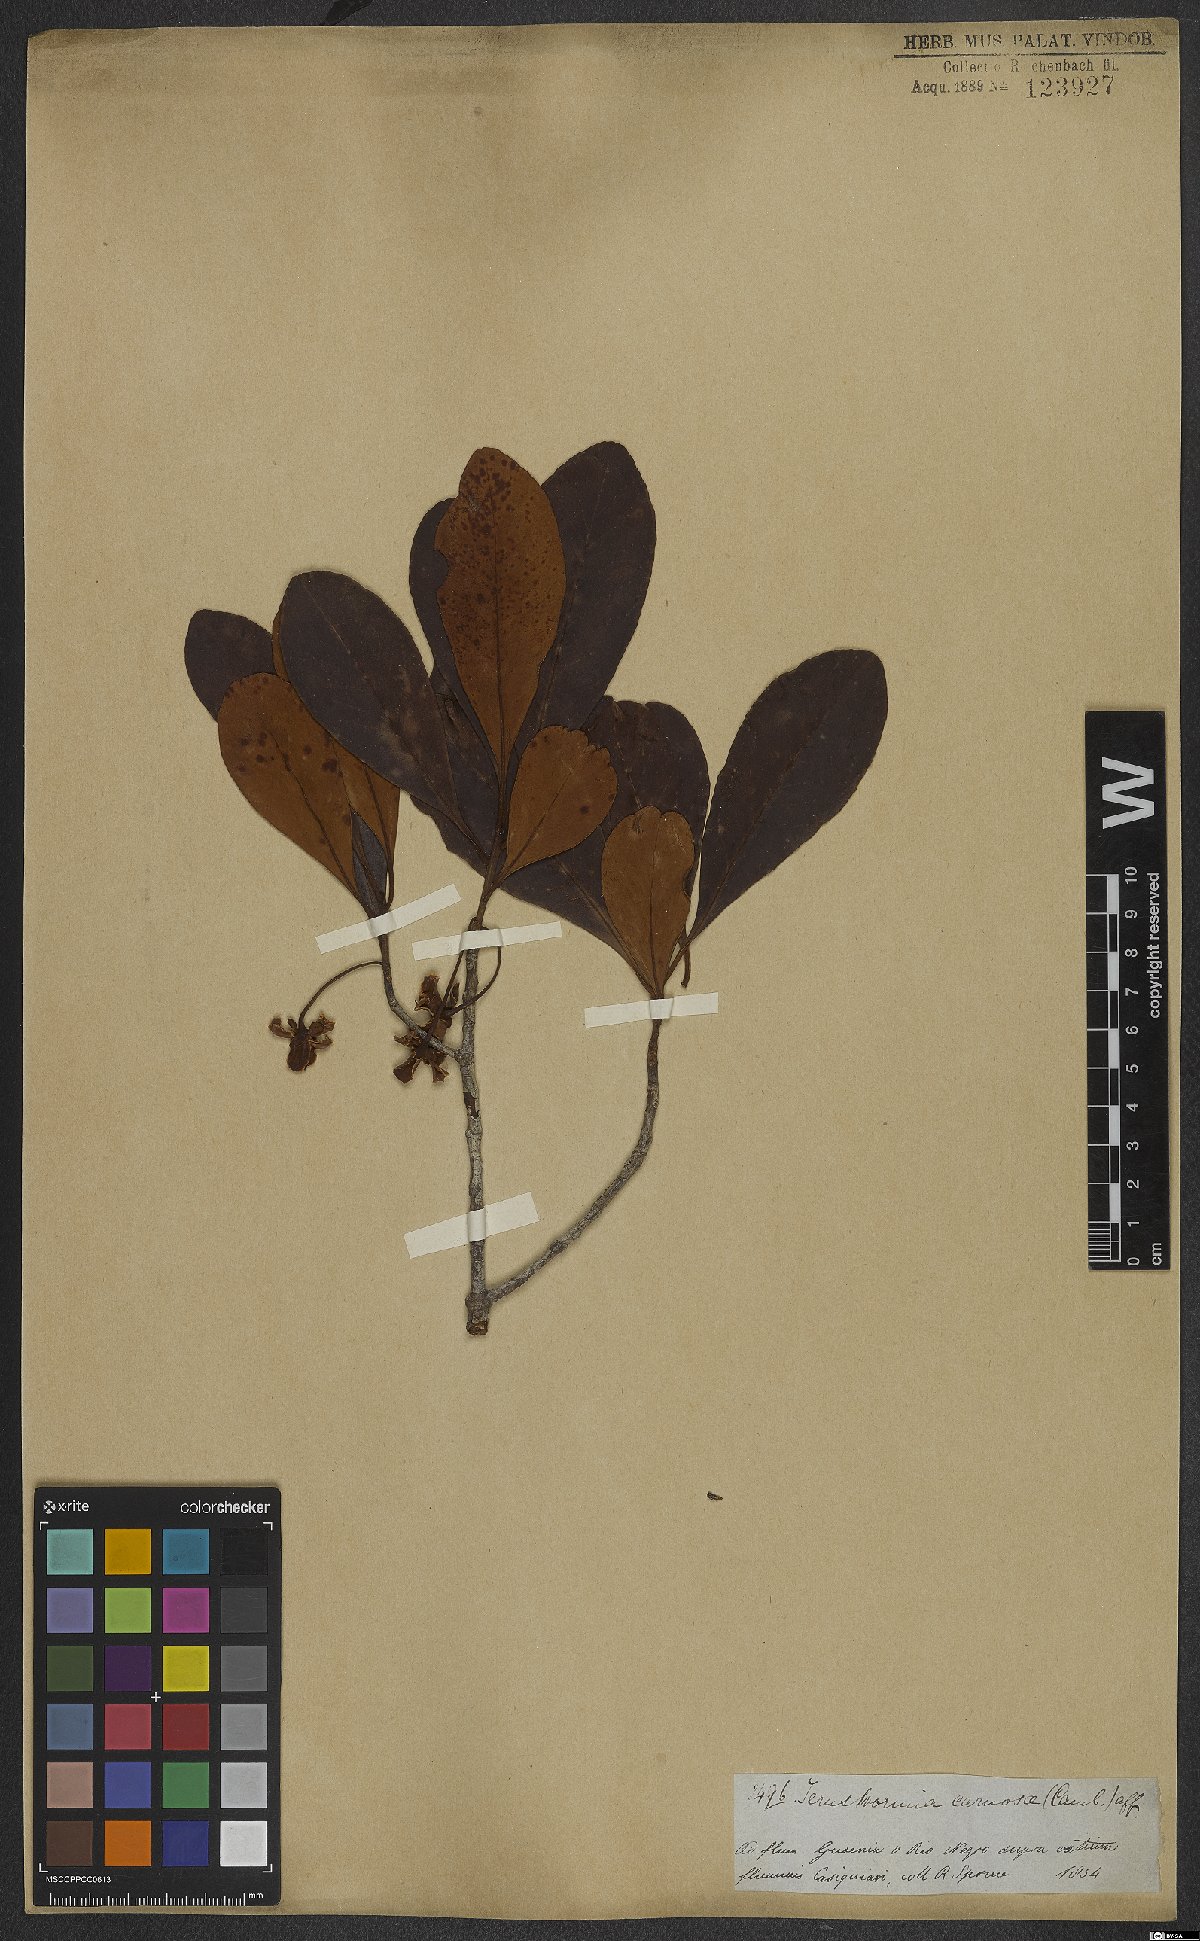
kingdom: Plantae
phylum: Tracheophyta
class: Magnoliopsida
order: Ericales
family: Pentaphylacaceae
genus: Ternstroemia
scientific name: Ternstroemia carnosa
